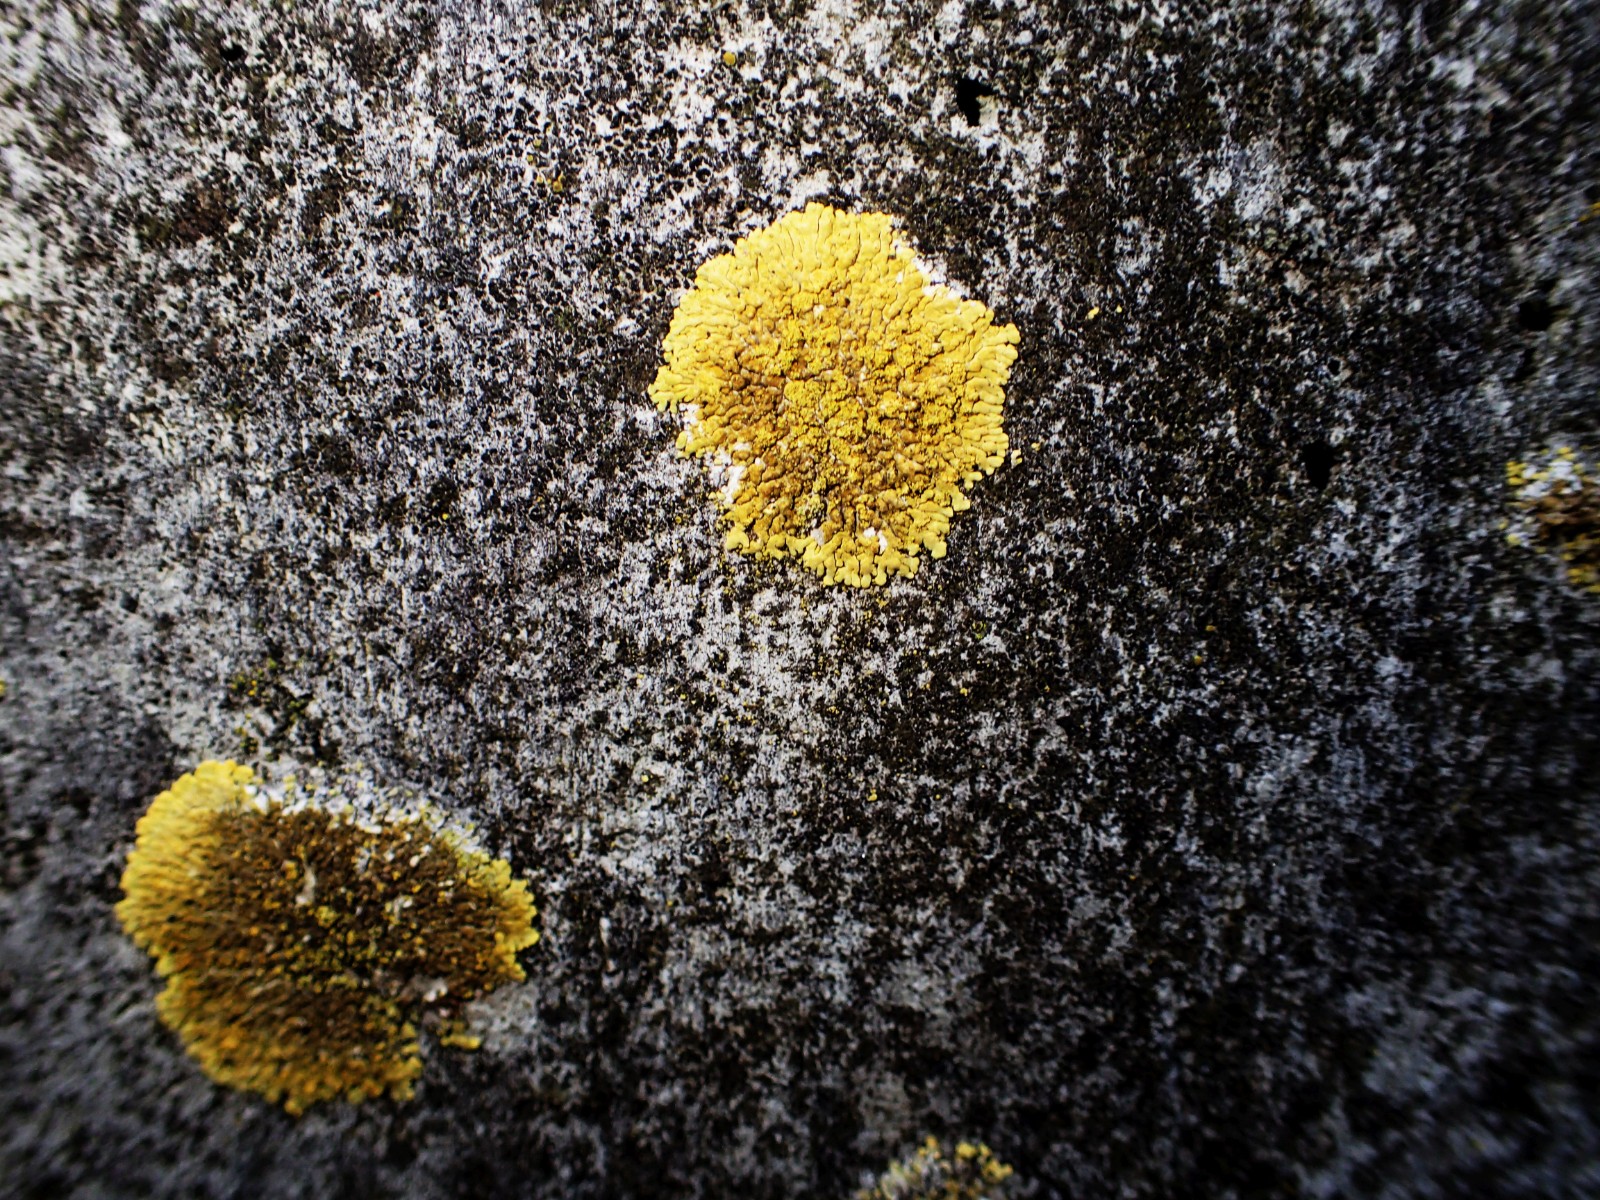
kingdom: Fungi
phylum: Ascomycota
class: Lecanoromycetes
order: Teloschistales
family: Teloschistaceae
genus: Calogaya
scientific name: Calogaya decipiens
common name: knudret orangelav
